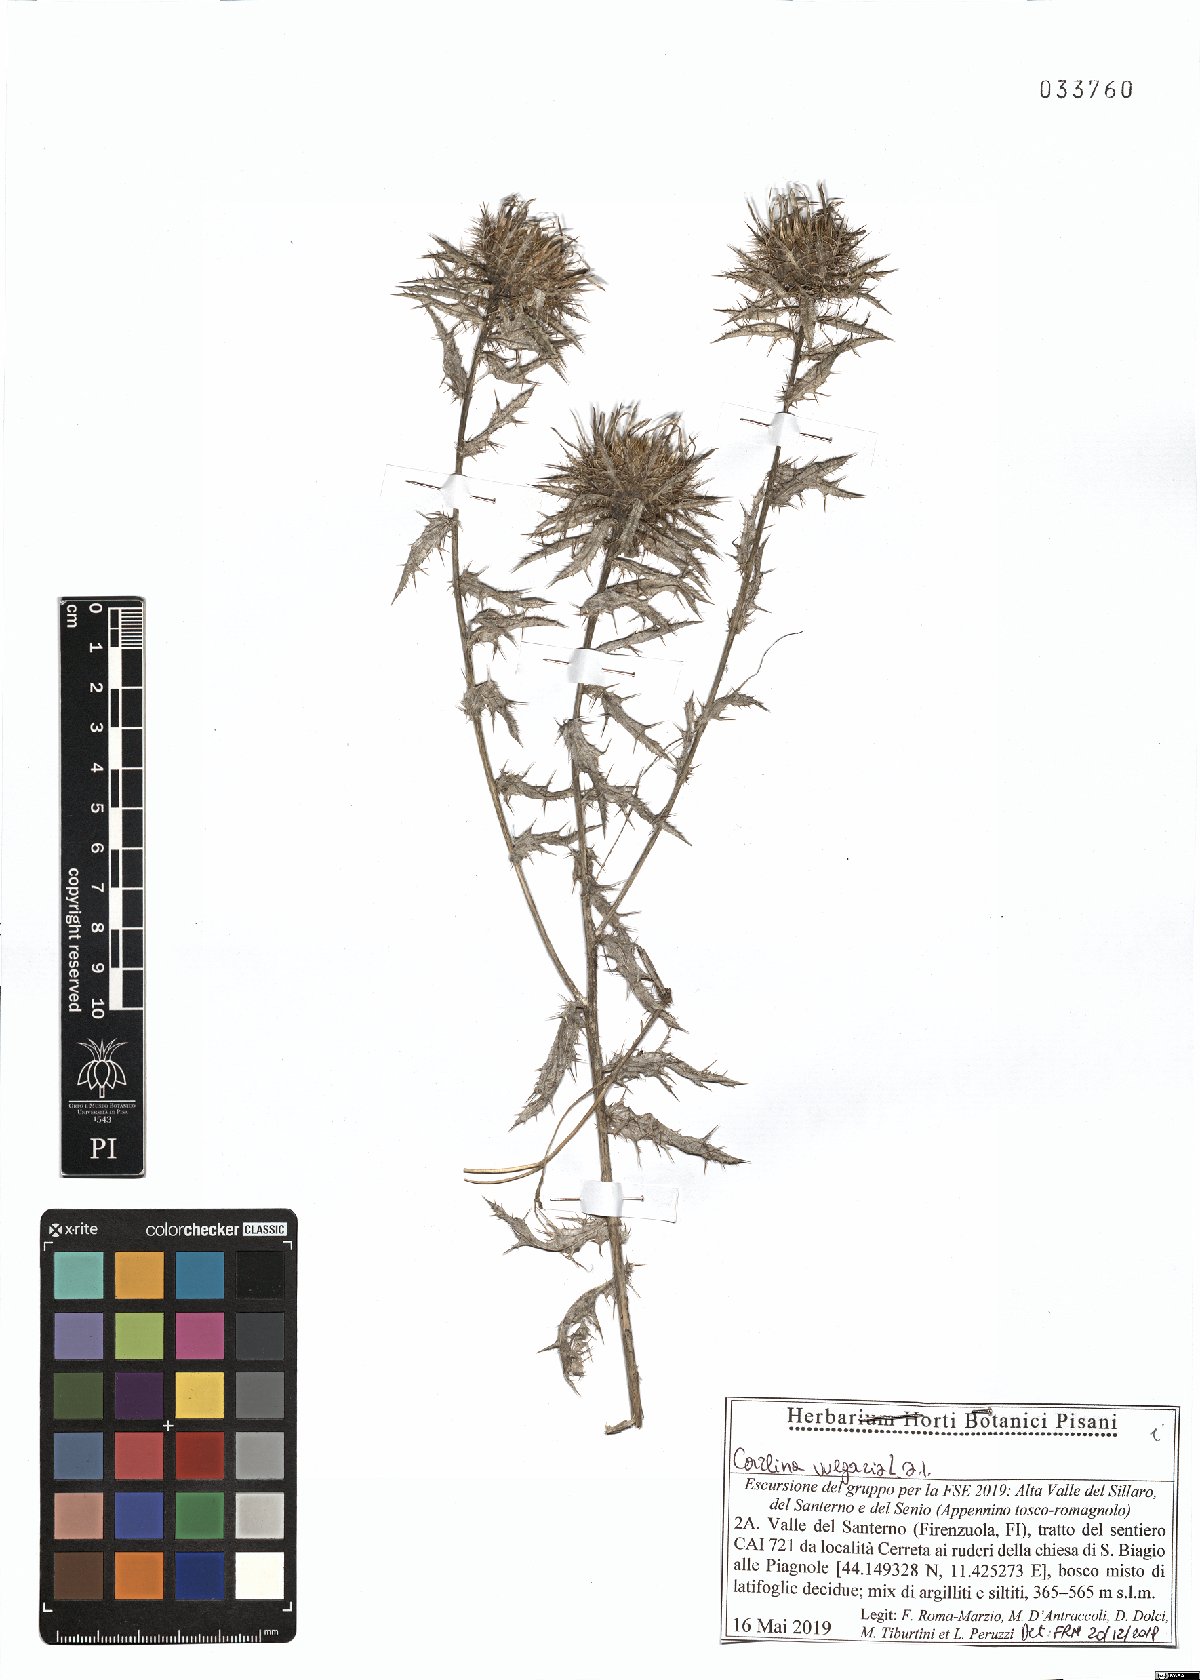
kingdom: Plantae
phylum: Tracheophyta
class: Magnoliopsida
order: Asterales
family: Asteraceae
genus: Carlina
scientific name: Carlina vulgaris
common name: Carline thistle
